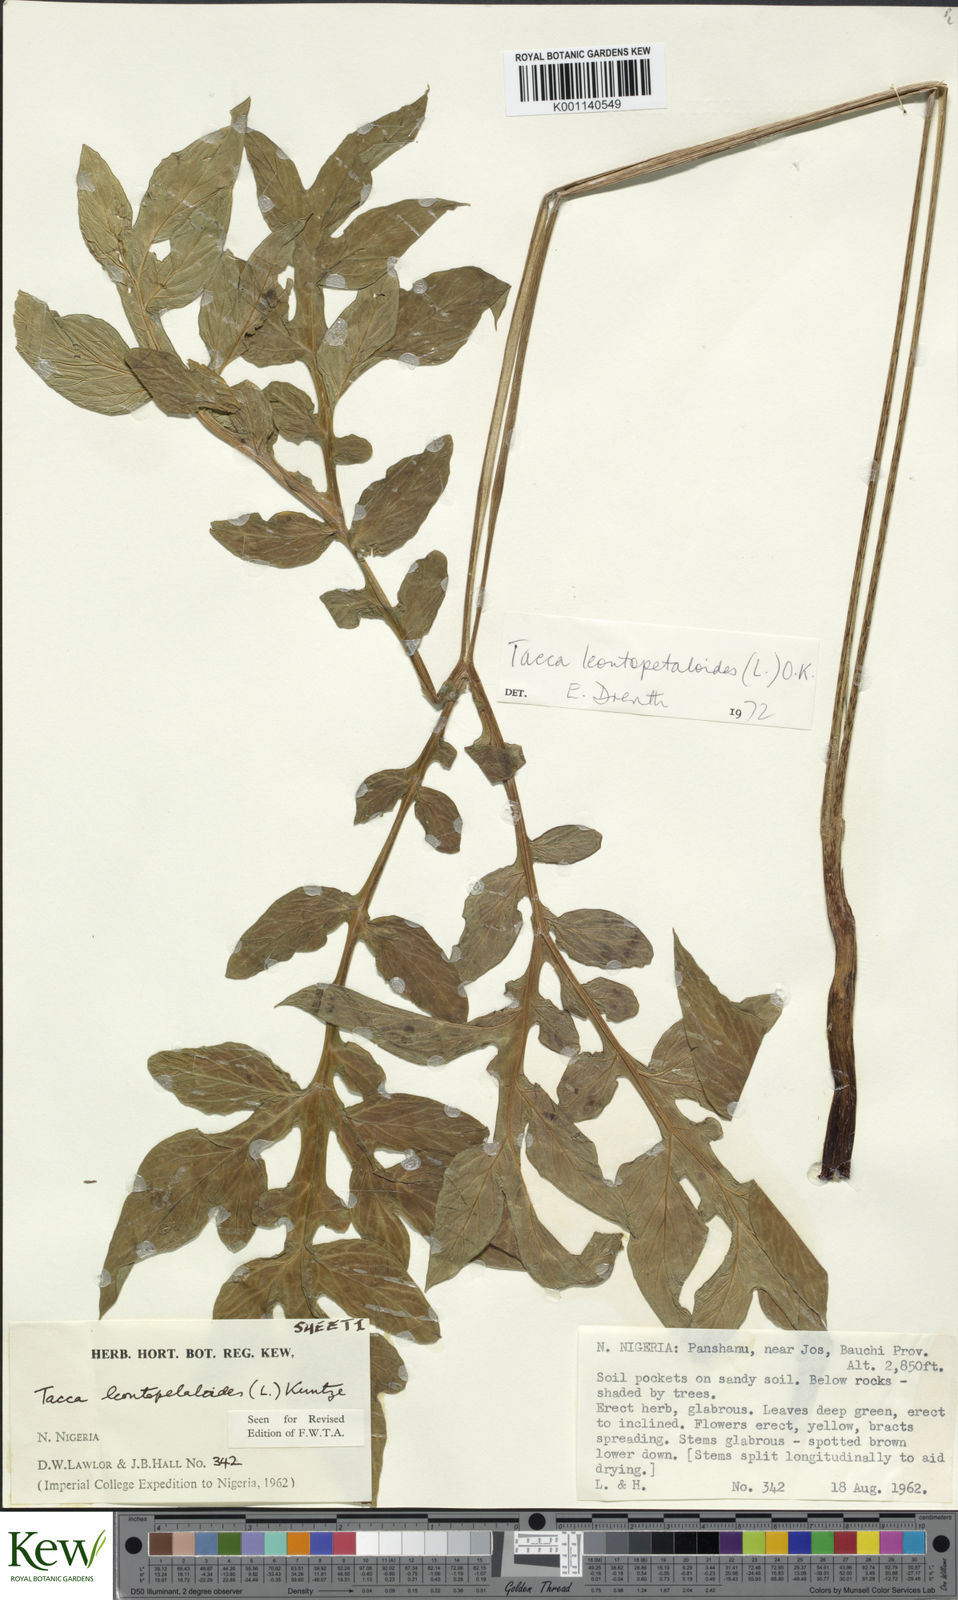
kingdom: Plantae
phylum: Tracheophyta
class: Liliopsida
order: Dioscoreales
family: Dioscoreaceae
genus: Tacca
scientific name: Tacca leontopetaloides
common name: Arrowroot
